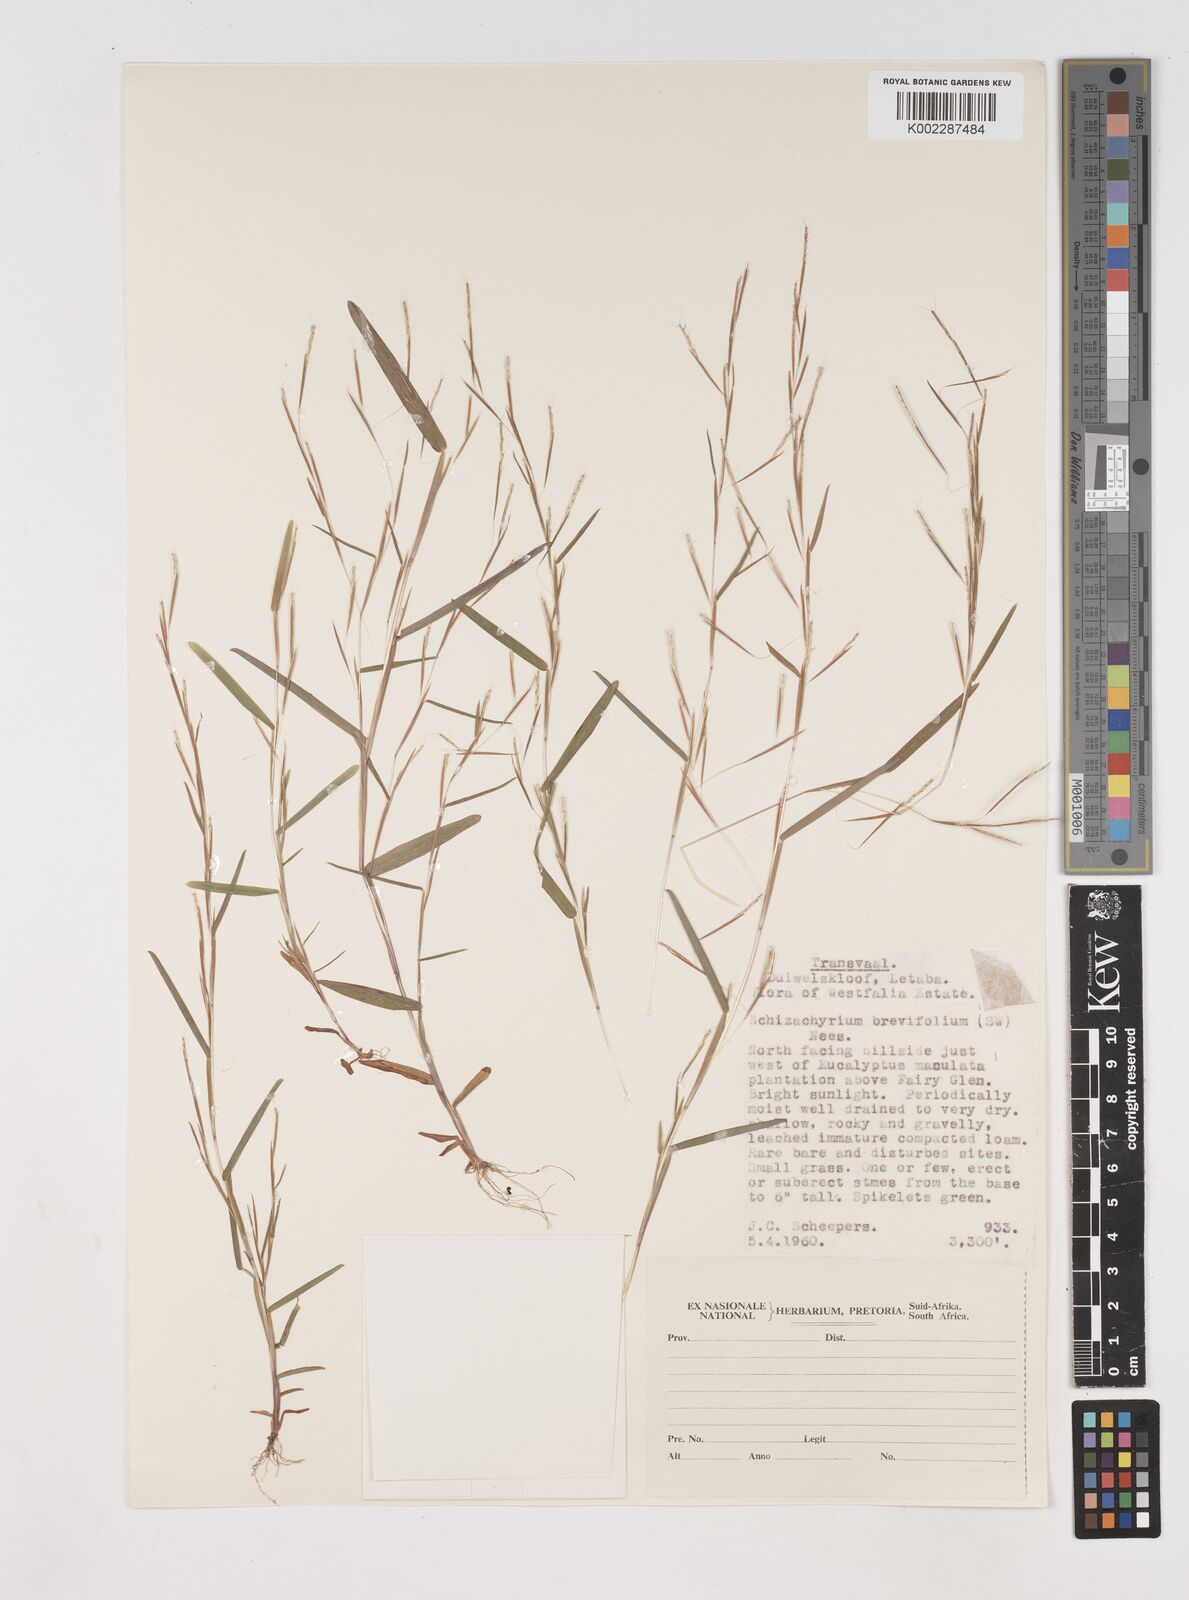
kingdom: Plantae
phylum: Tracheophyta
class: Liliopsida
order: Poales
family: Poaceae
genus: Schizachyrium
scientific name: Schizachyrium brevifolium
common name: Serillo dulce
